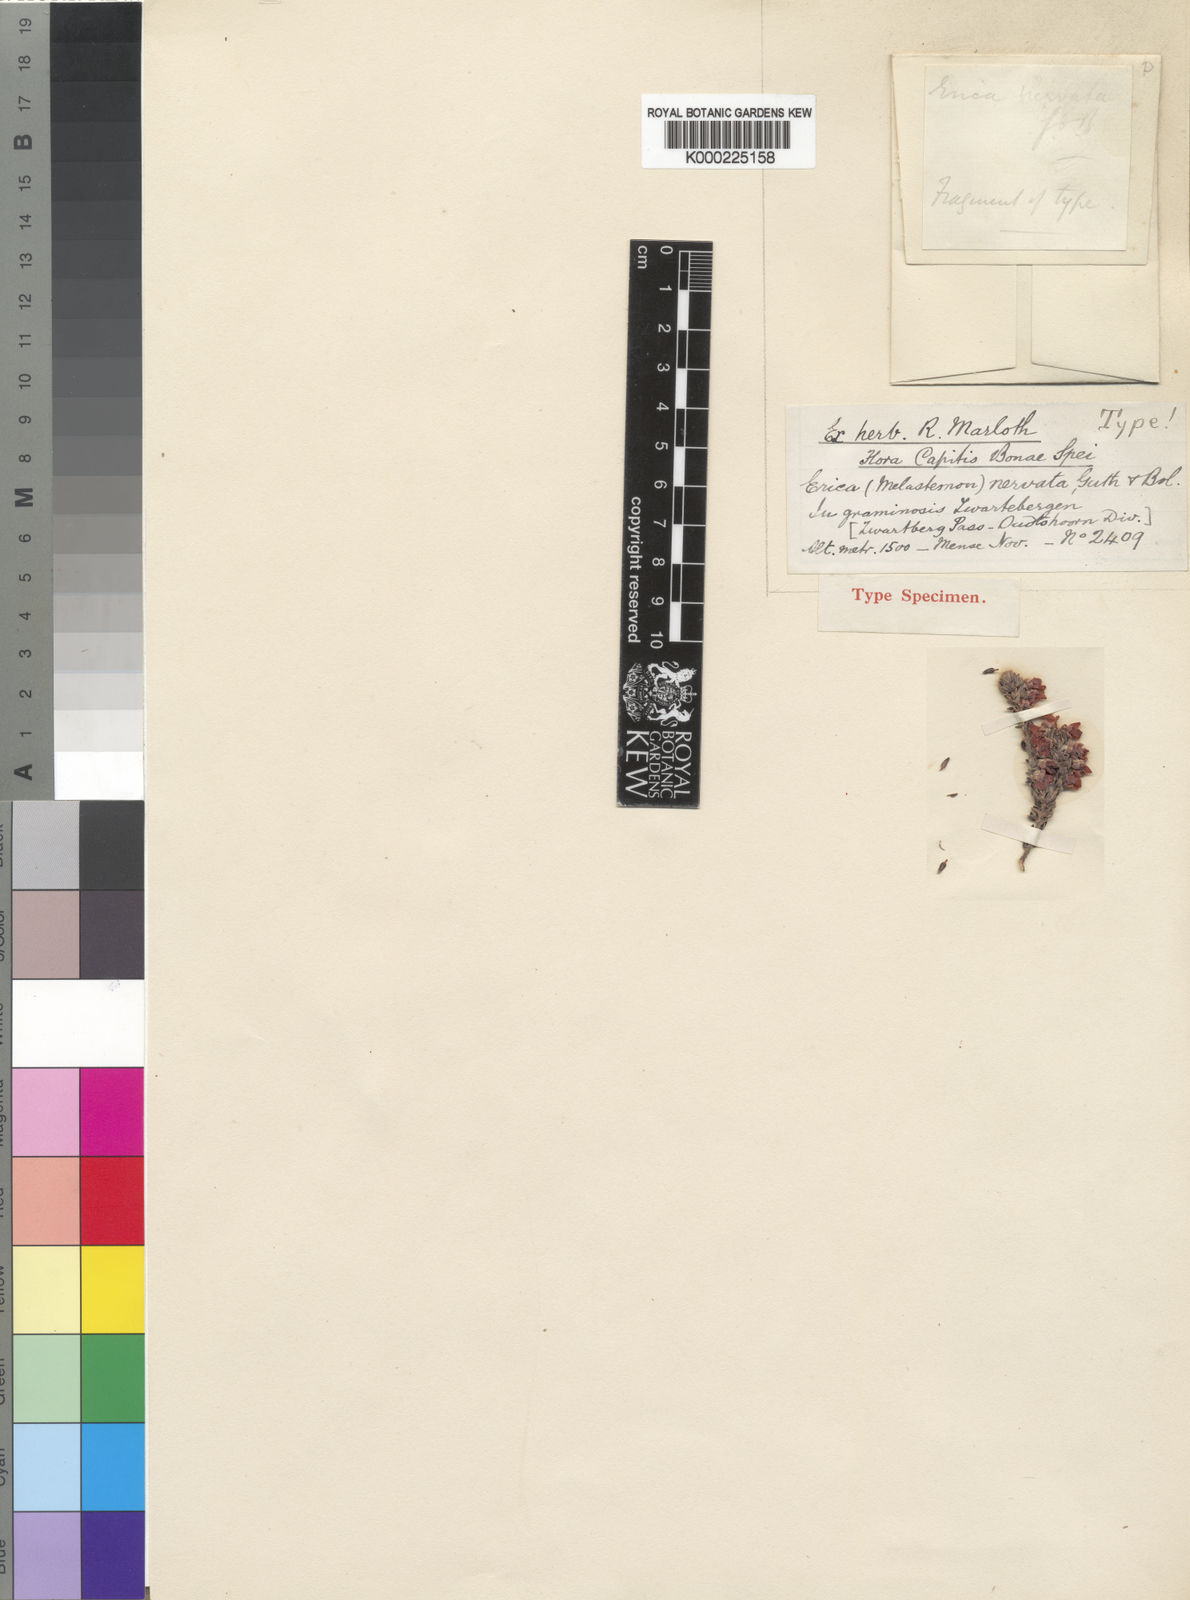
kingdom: Plantae
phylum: Tracheophyta
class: Magnoliopsida
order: Ericales
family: Ericaceae
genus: Erica
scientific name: Erica
